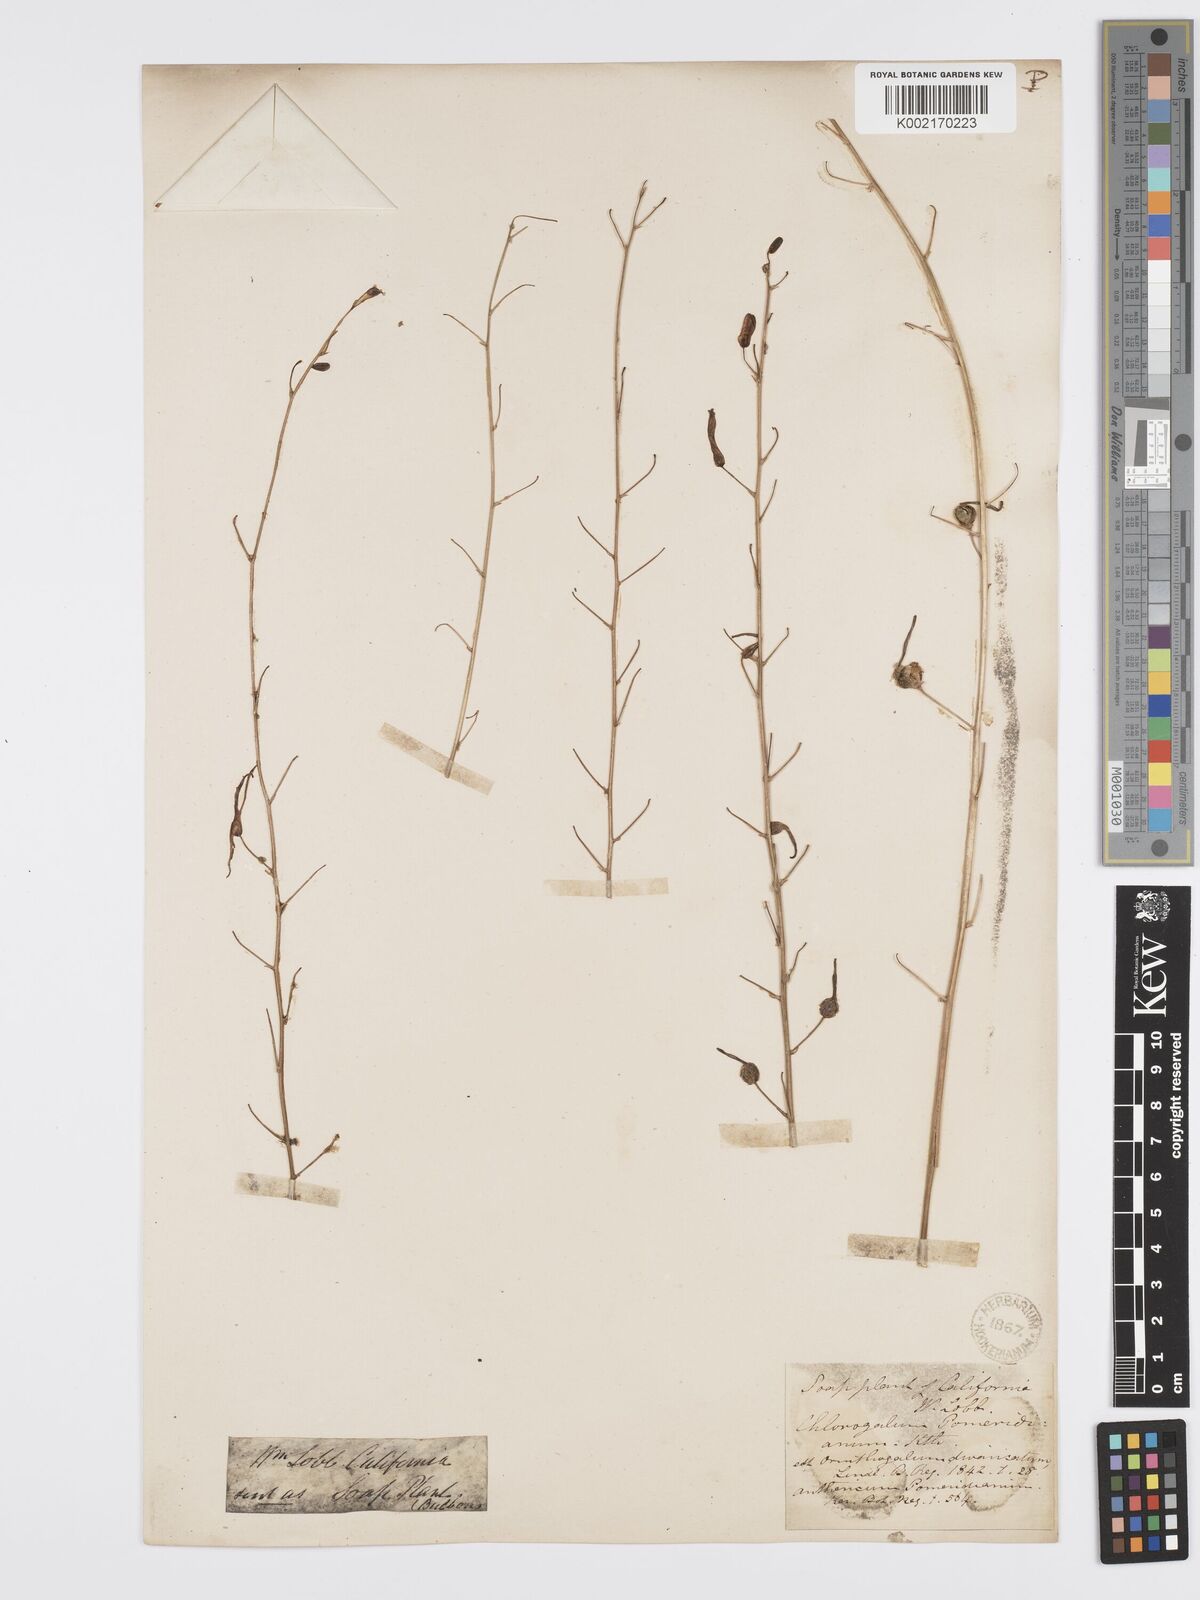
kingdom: Plantae
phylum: Tracheophyta
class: Liliopsida
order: Asparagales
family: Asparagaceae
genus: Chlorogalum
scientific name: Chlorogalum pomeridianum
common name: Amole
